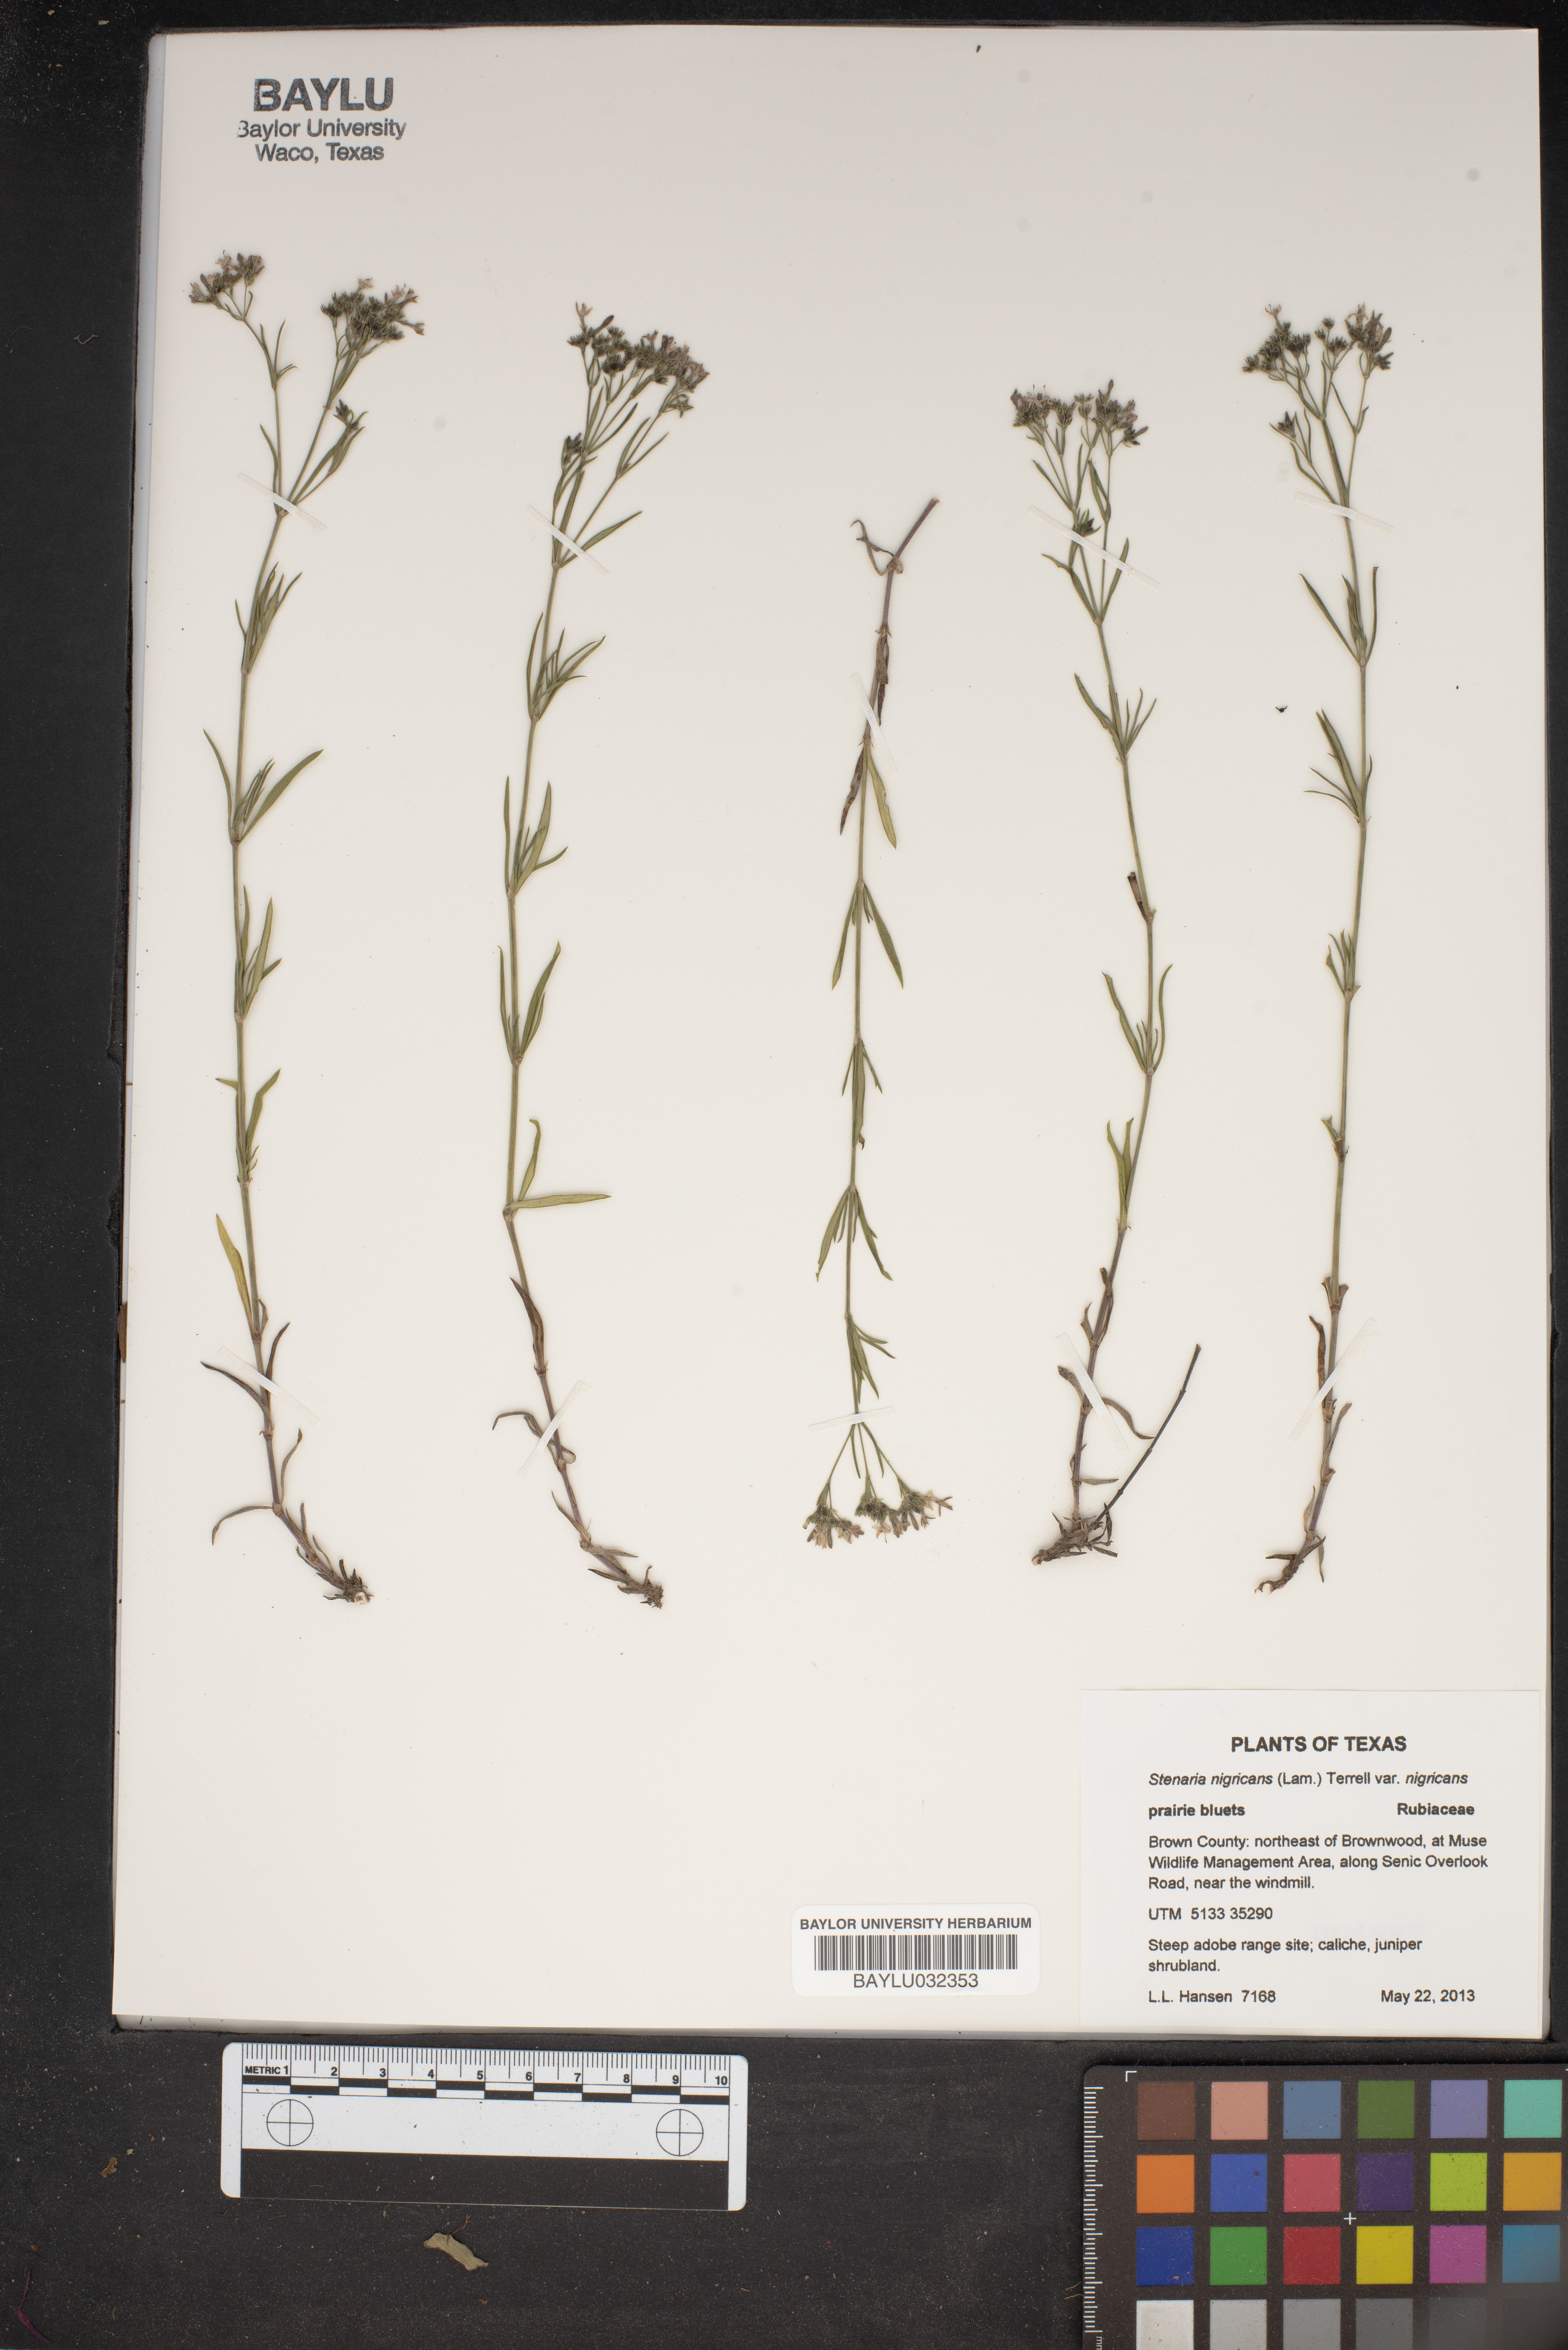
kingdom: Plantae
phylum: Tracheophyta
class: Magnoliopsida
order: Gentianales
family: Rubiaceae
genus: Stenaria
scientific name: Stenaria nigricans
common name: Diamondflowers
